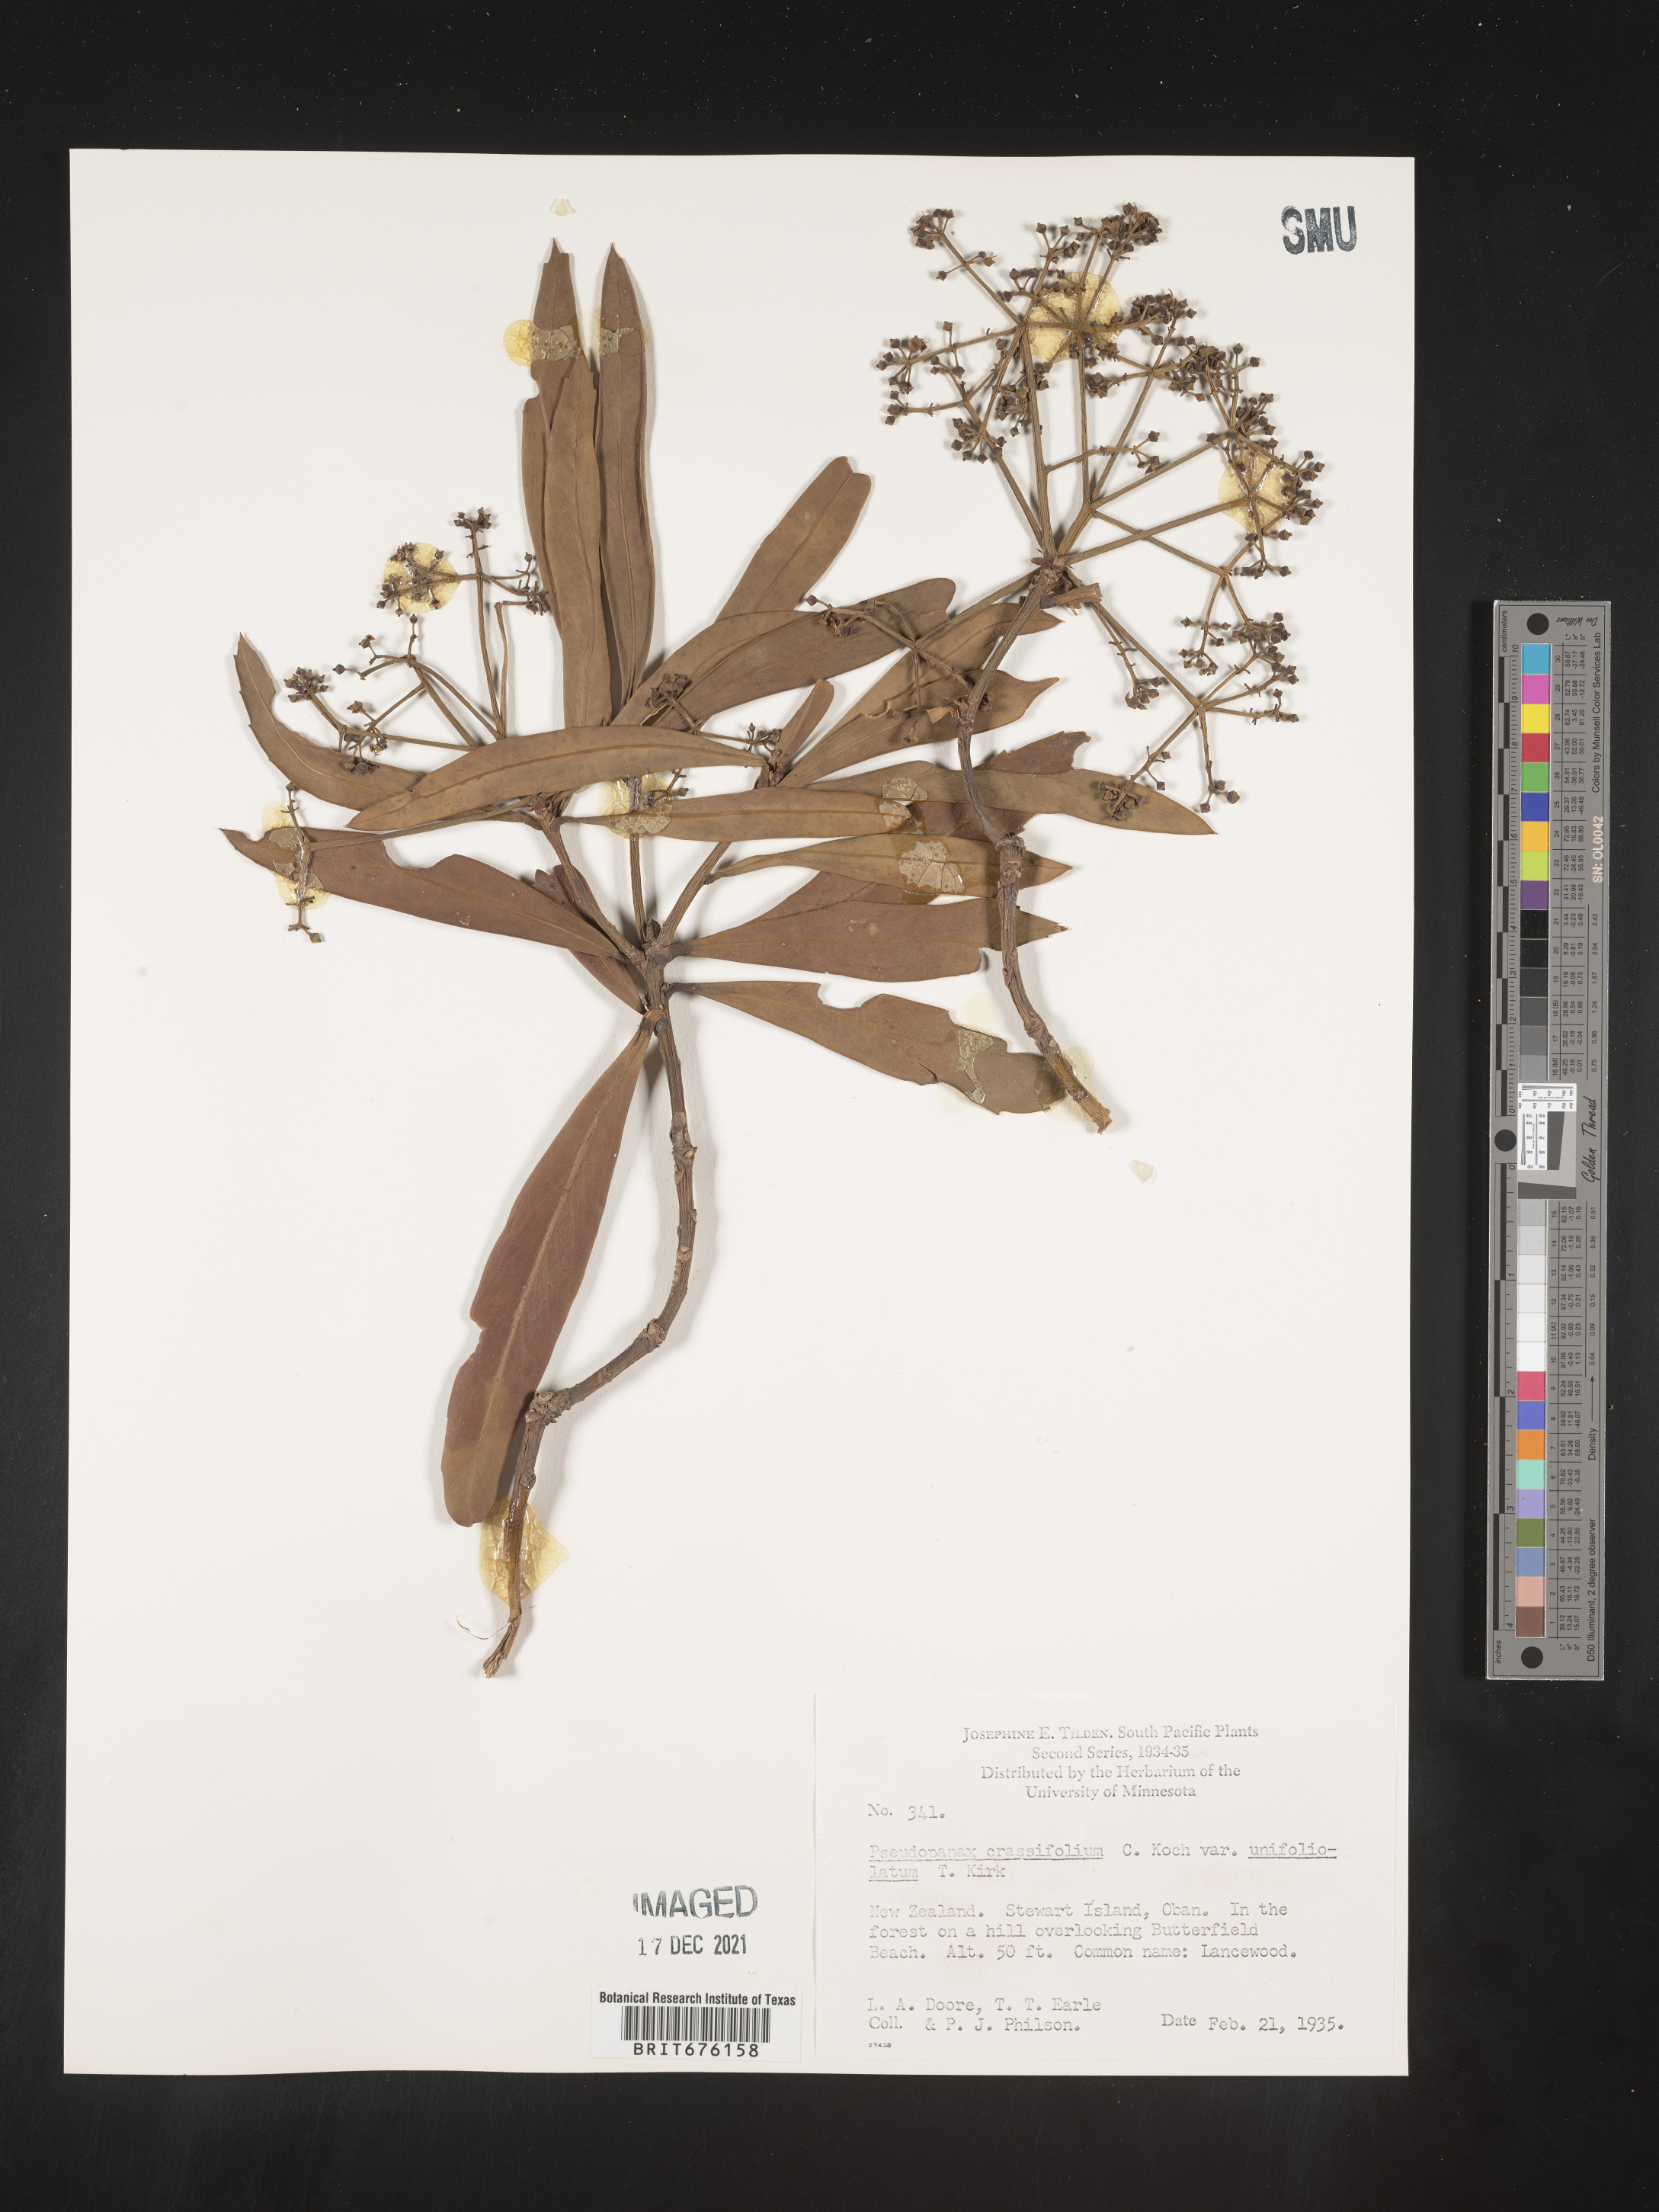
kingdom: Plantae
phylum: Tracheophyta
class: Magnoliopsida
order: Apiales
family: Araliaceae
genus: Pseudopanax
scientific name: Pseudopanax crassifolius
